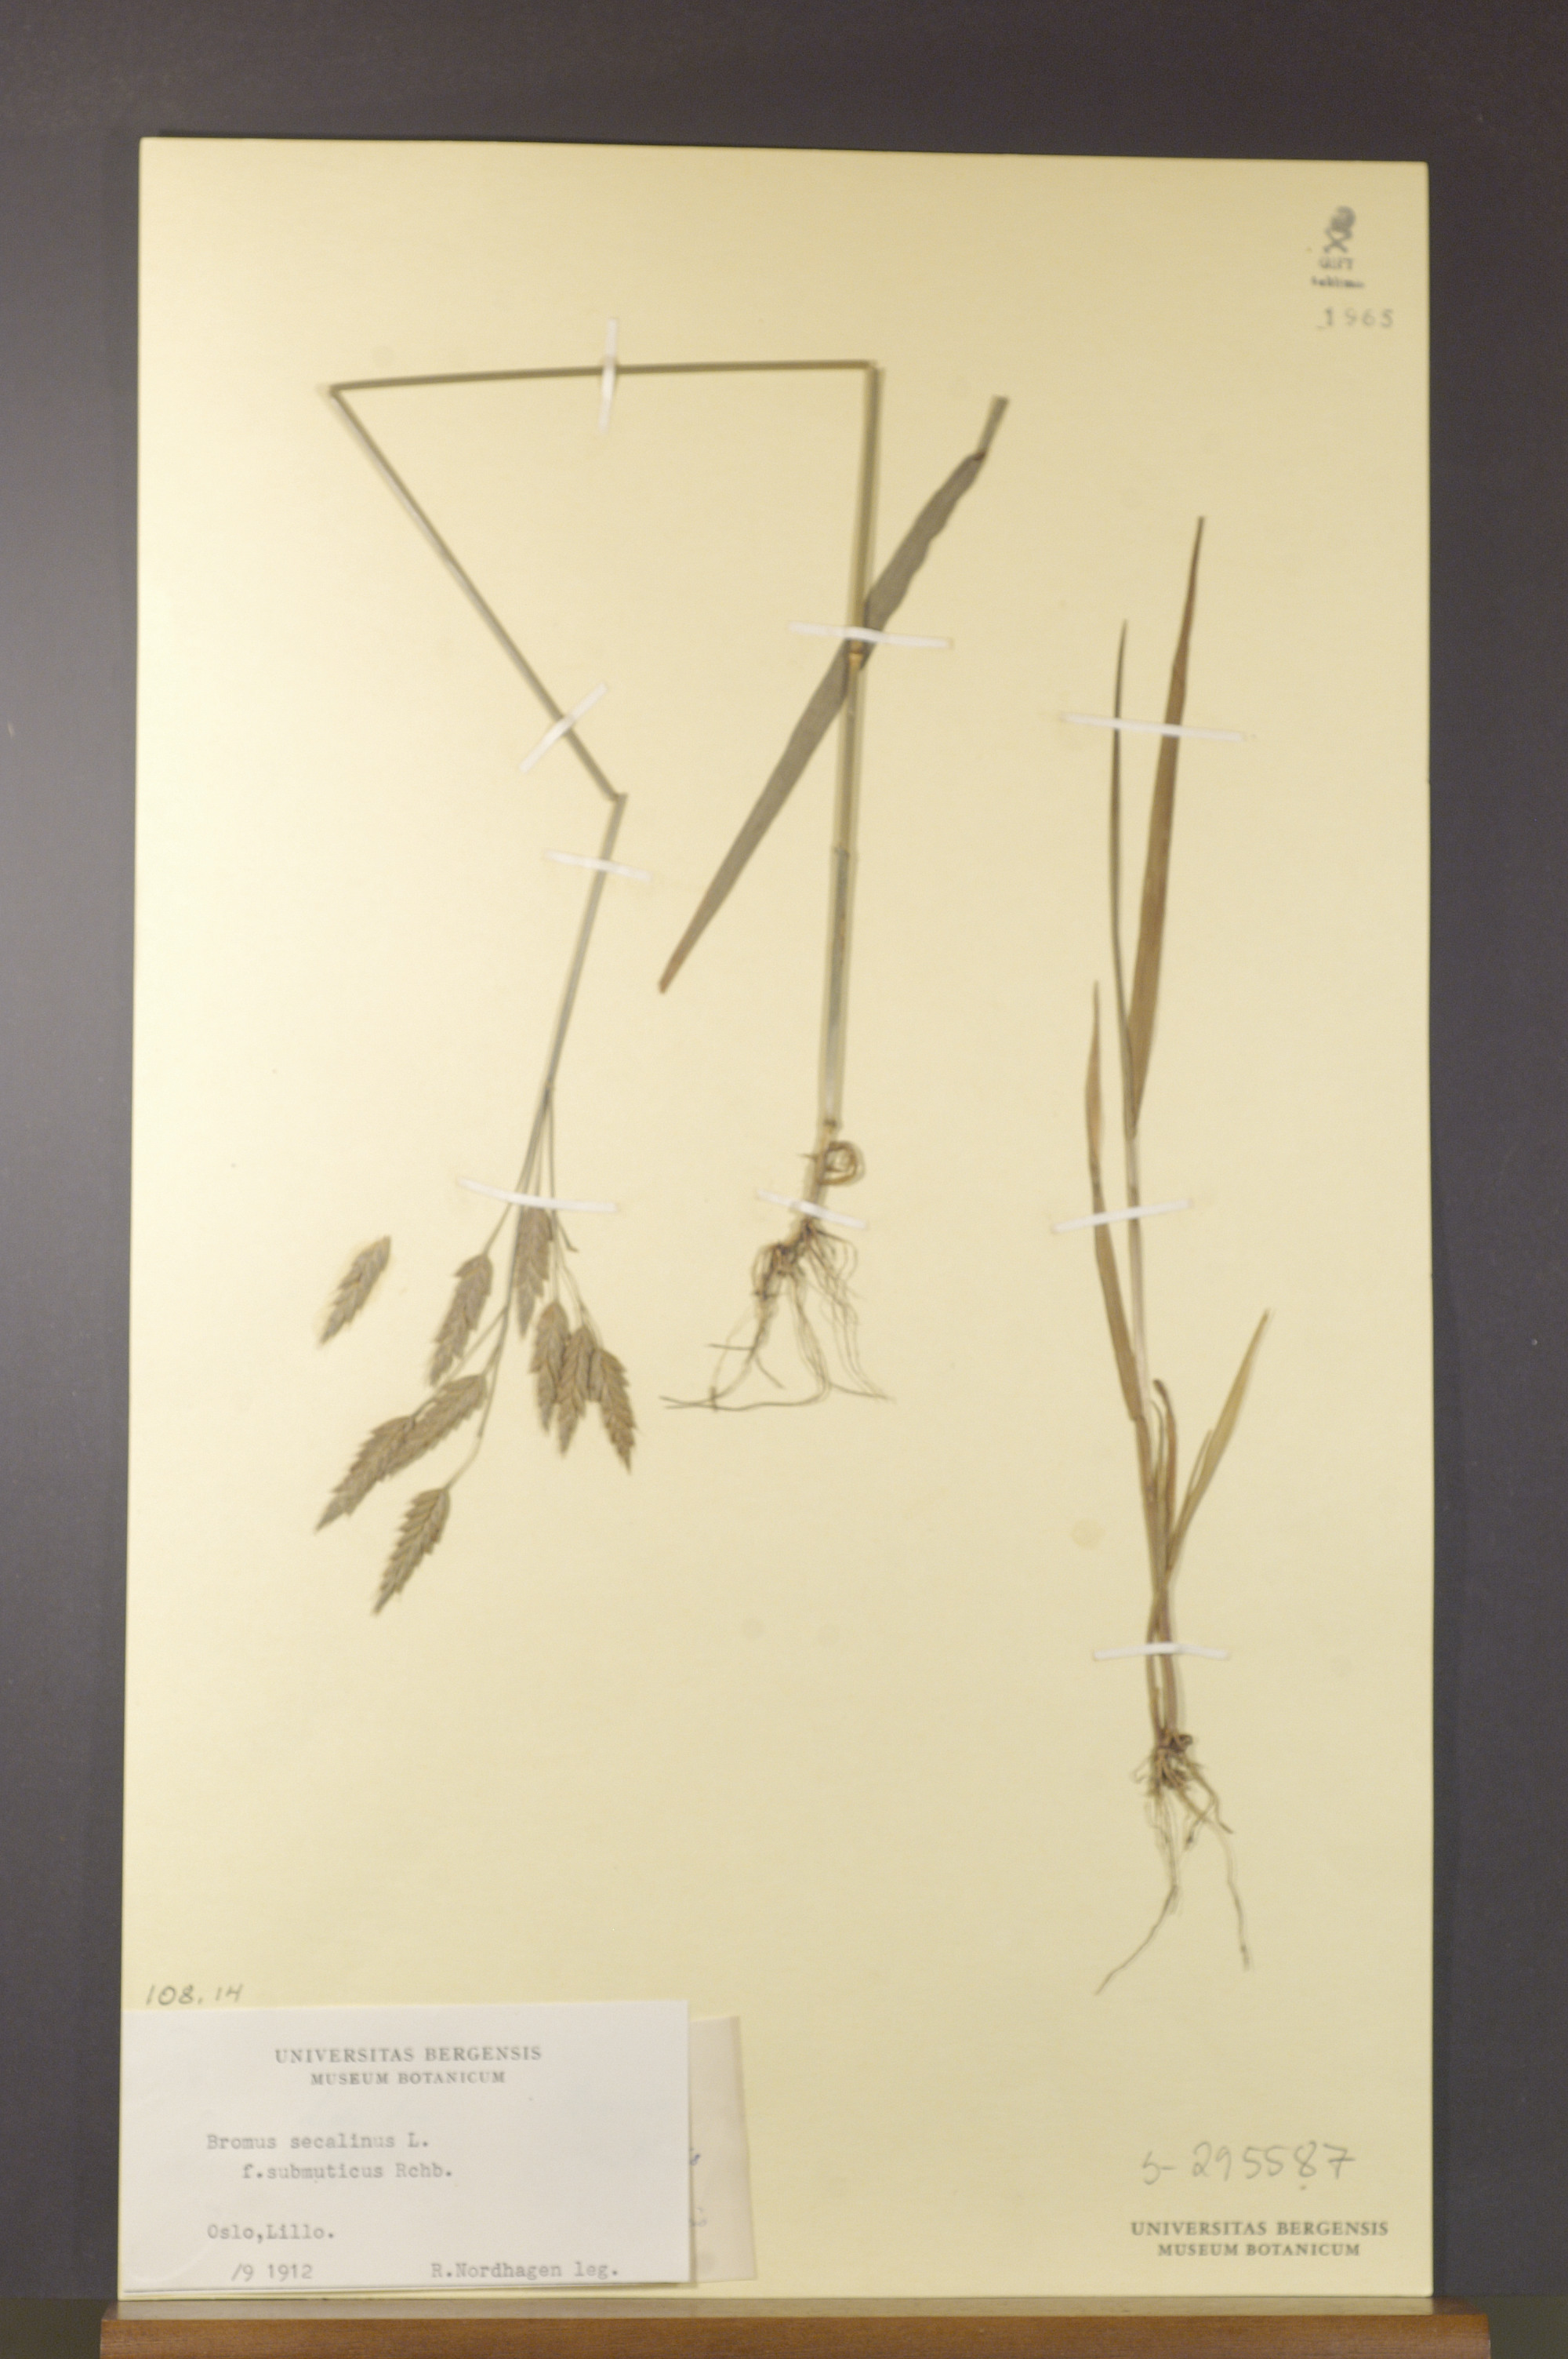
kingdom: Plantae
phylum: Tracheophyta
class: Liliopsida
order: Poales
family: Poaceae
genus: Bromus
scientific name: Bromus secalinus
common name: Rye brome
